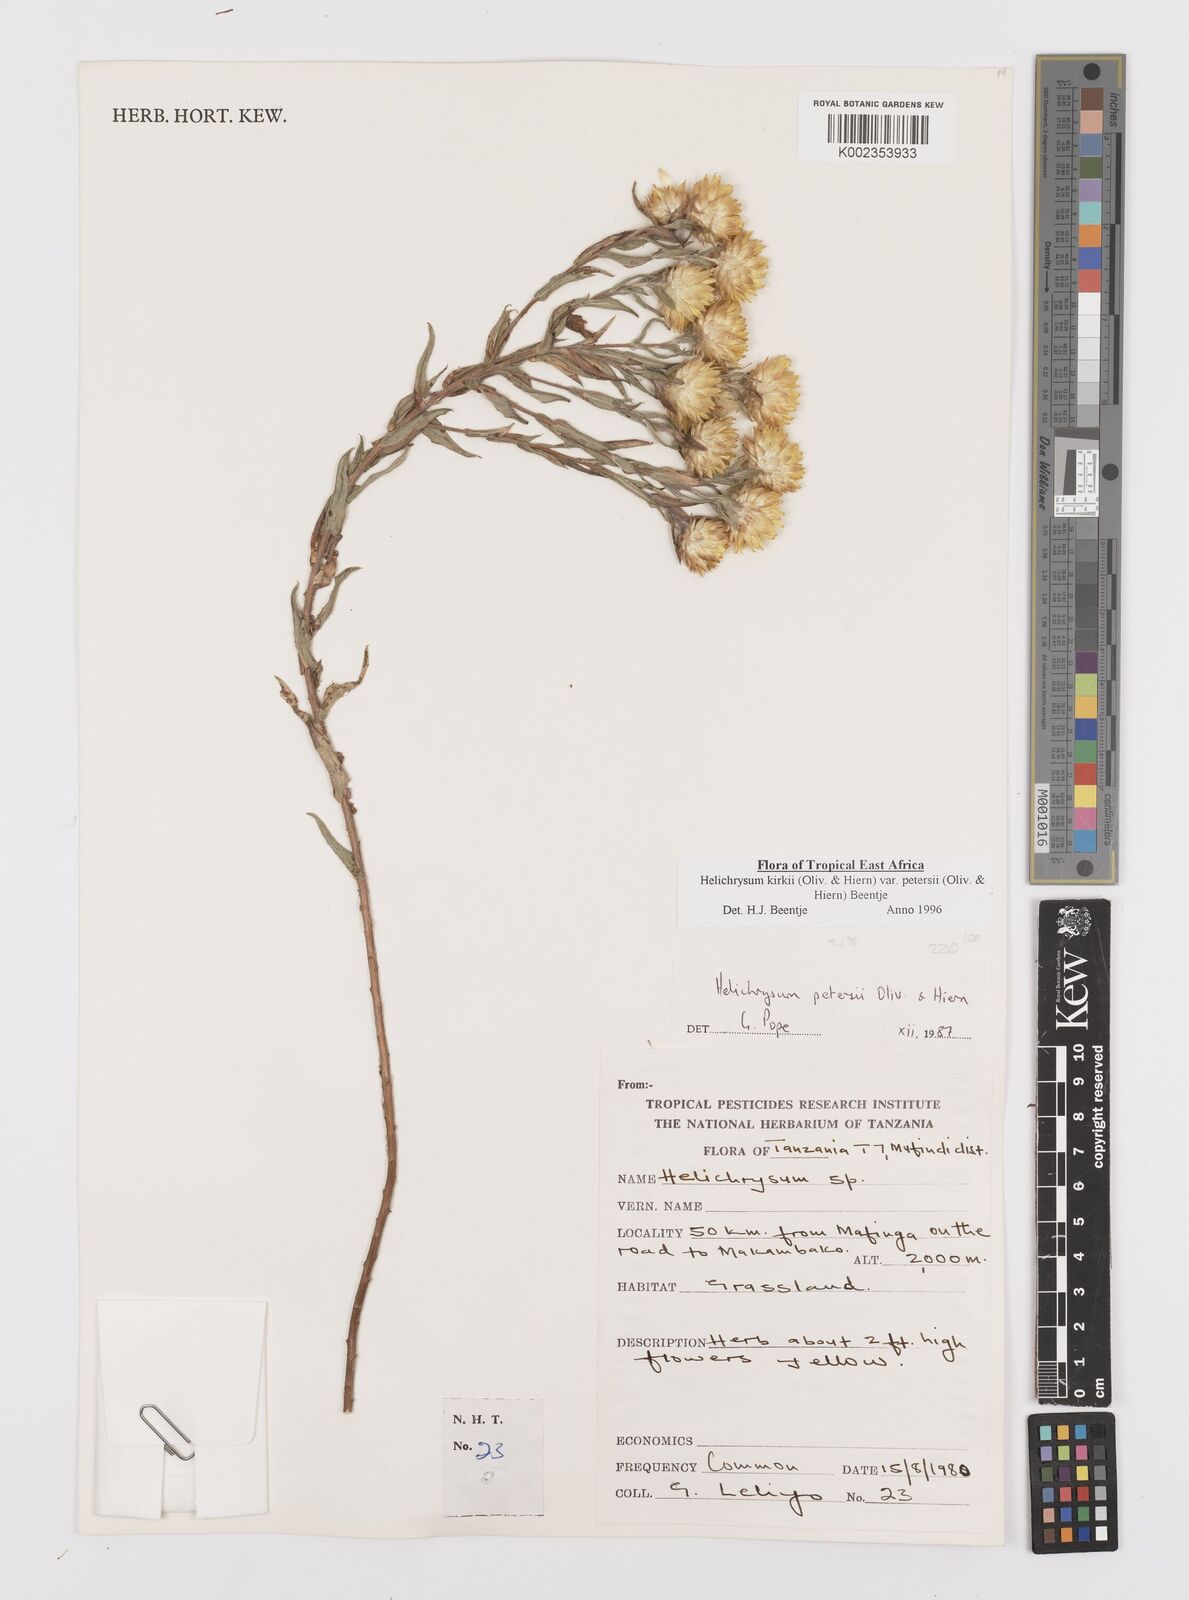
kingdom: Plantae
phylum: Tracheophyta
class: Magnoliopsida
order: Asterales
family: Asteraceae
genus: Helichrysum
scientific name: Helichrysum kirkii
